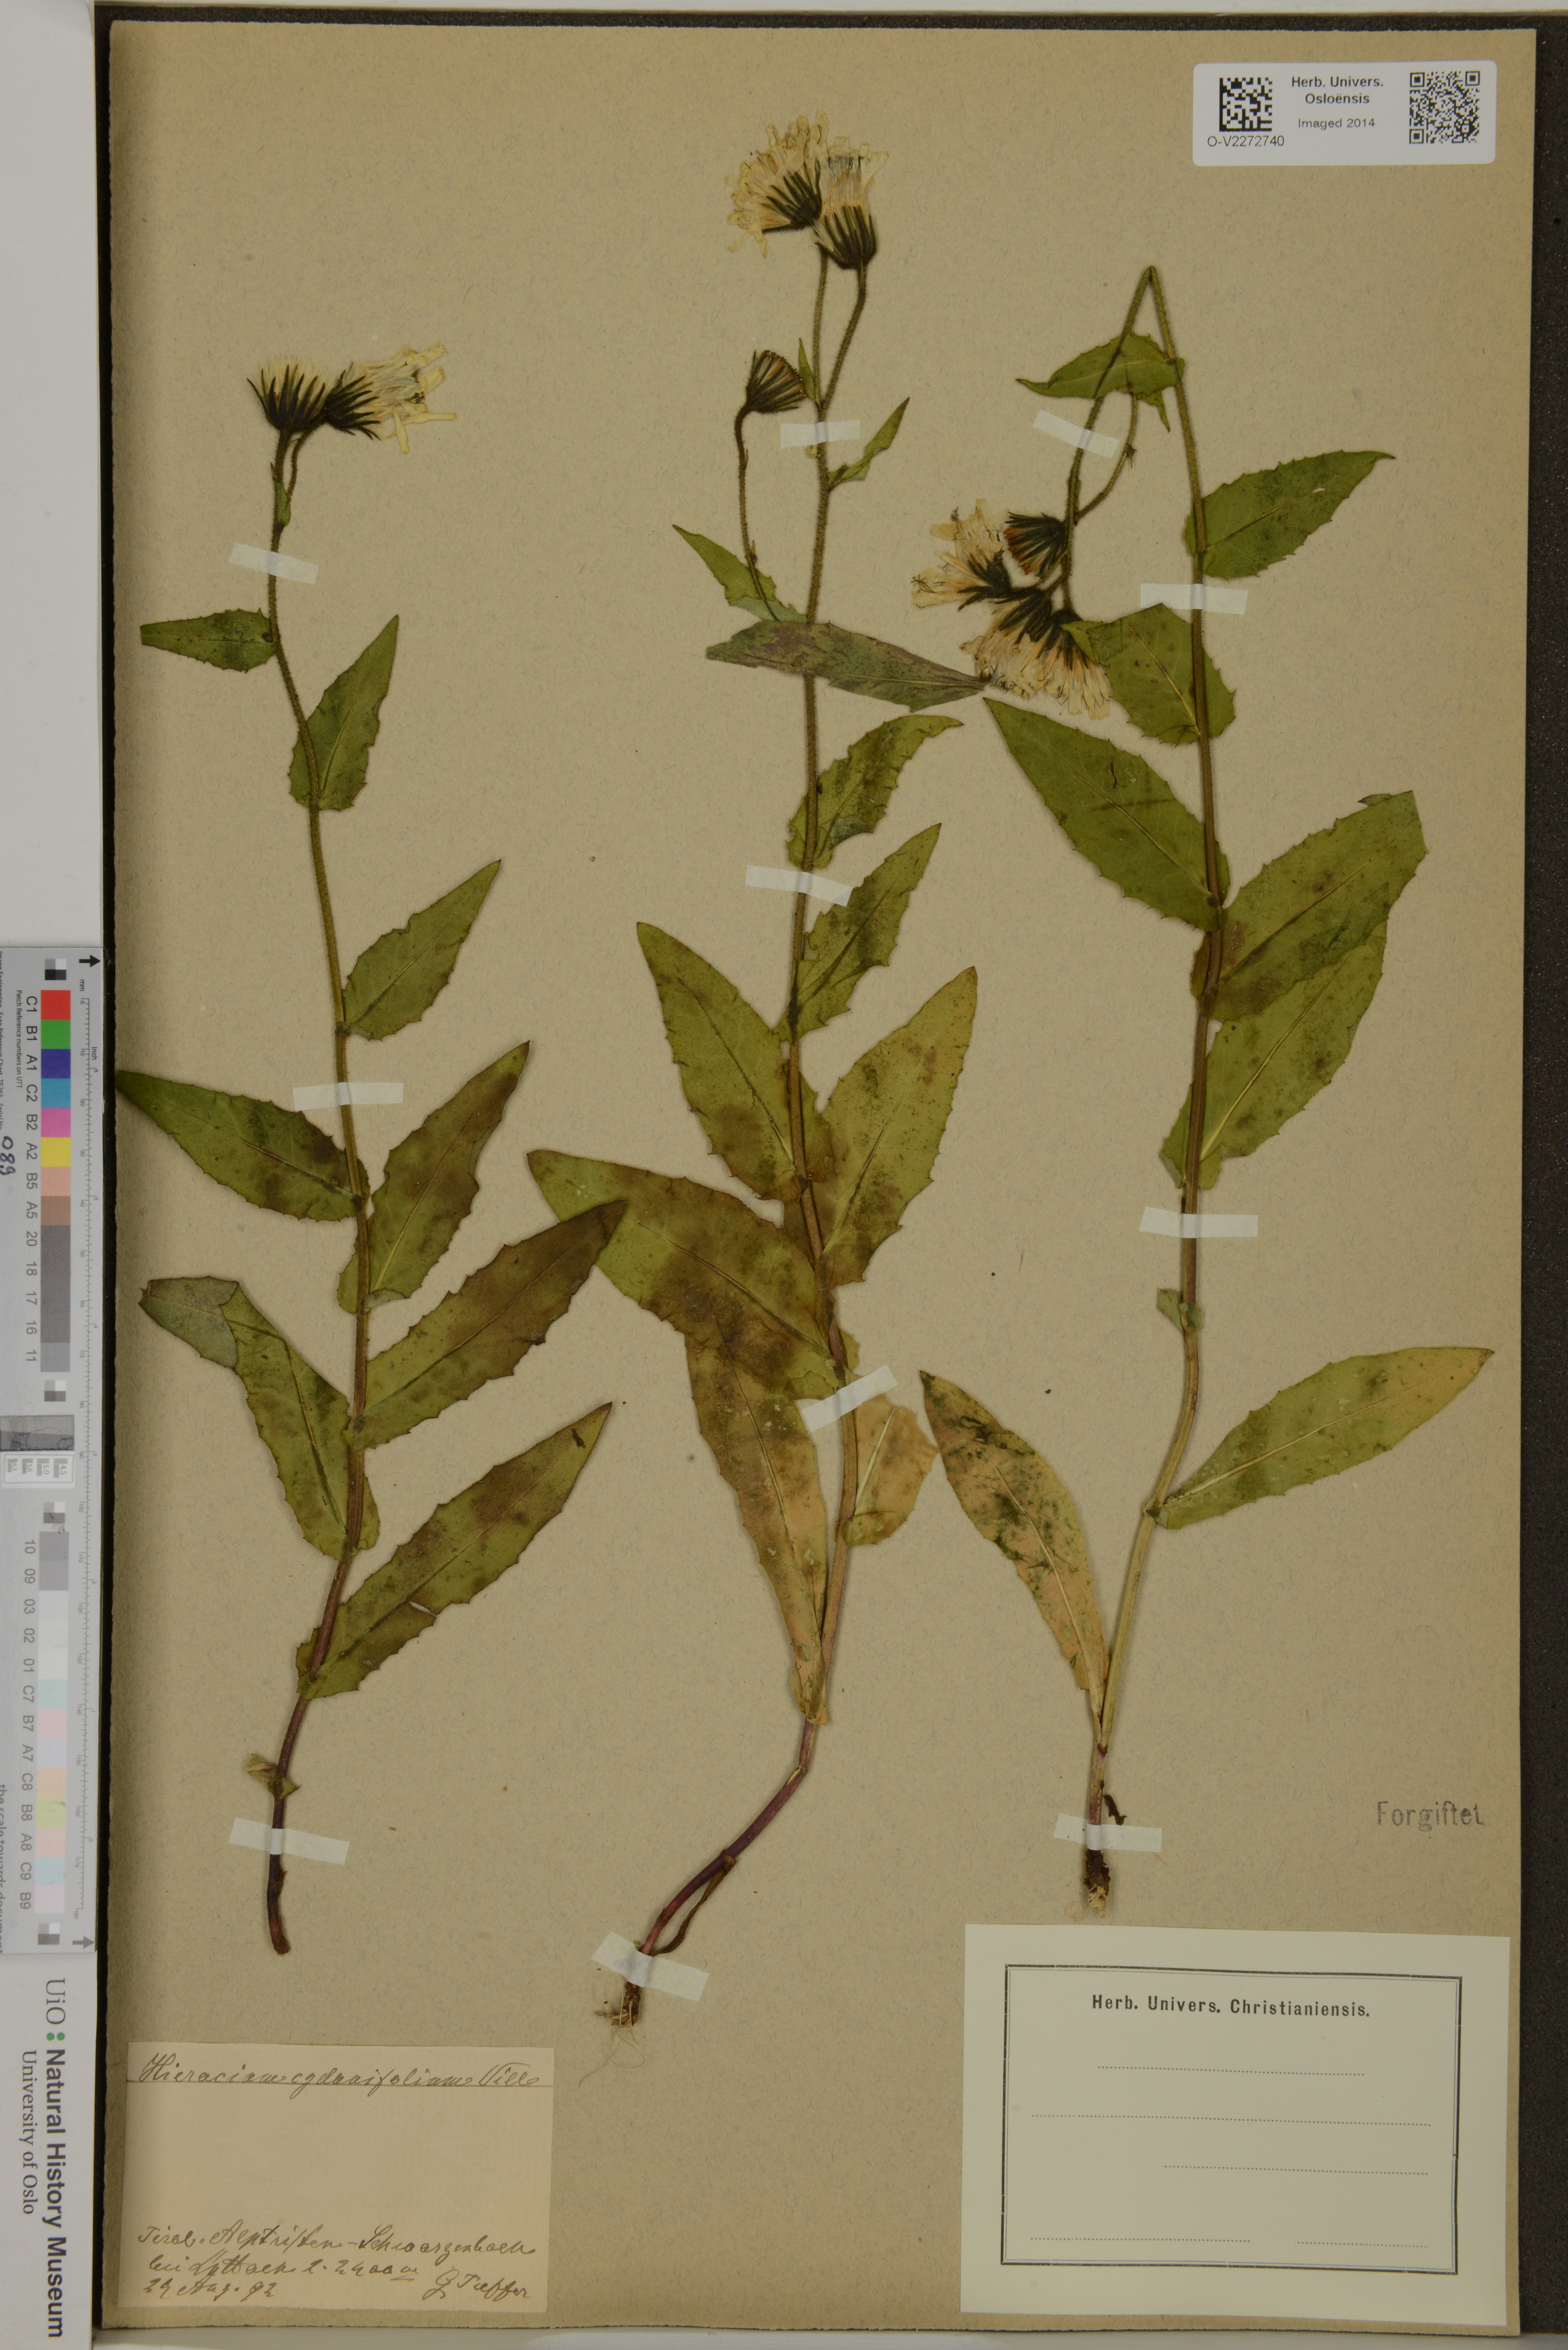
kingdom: Plantae
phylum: Tracheophyta
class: Magnoliopsida
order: Asterales
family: Asteraceae
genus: Hieracium
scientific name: Hieracium cydoniifolium
